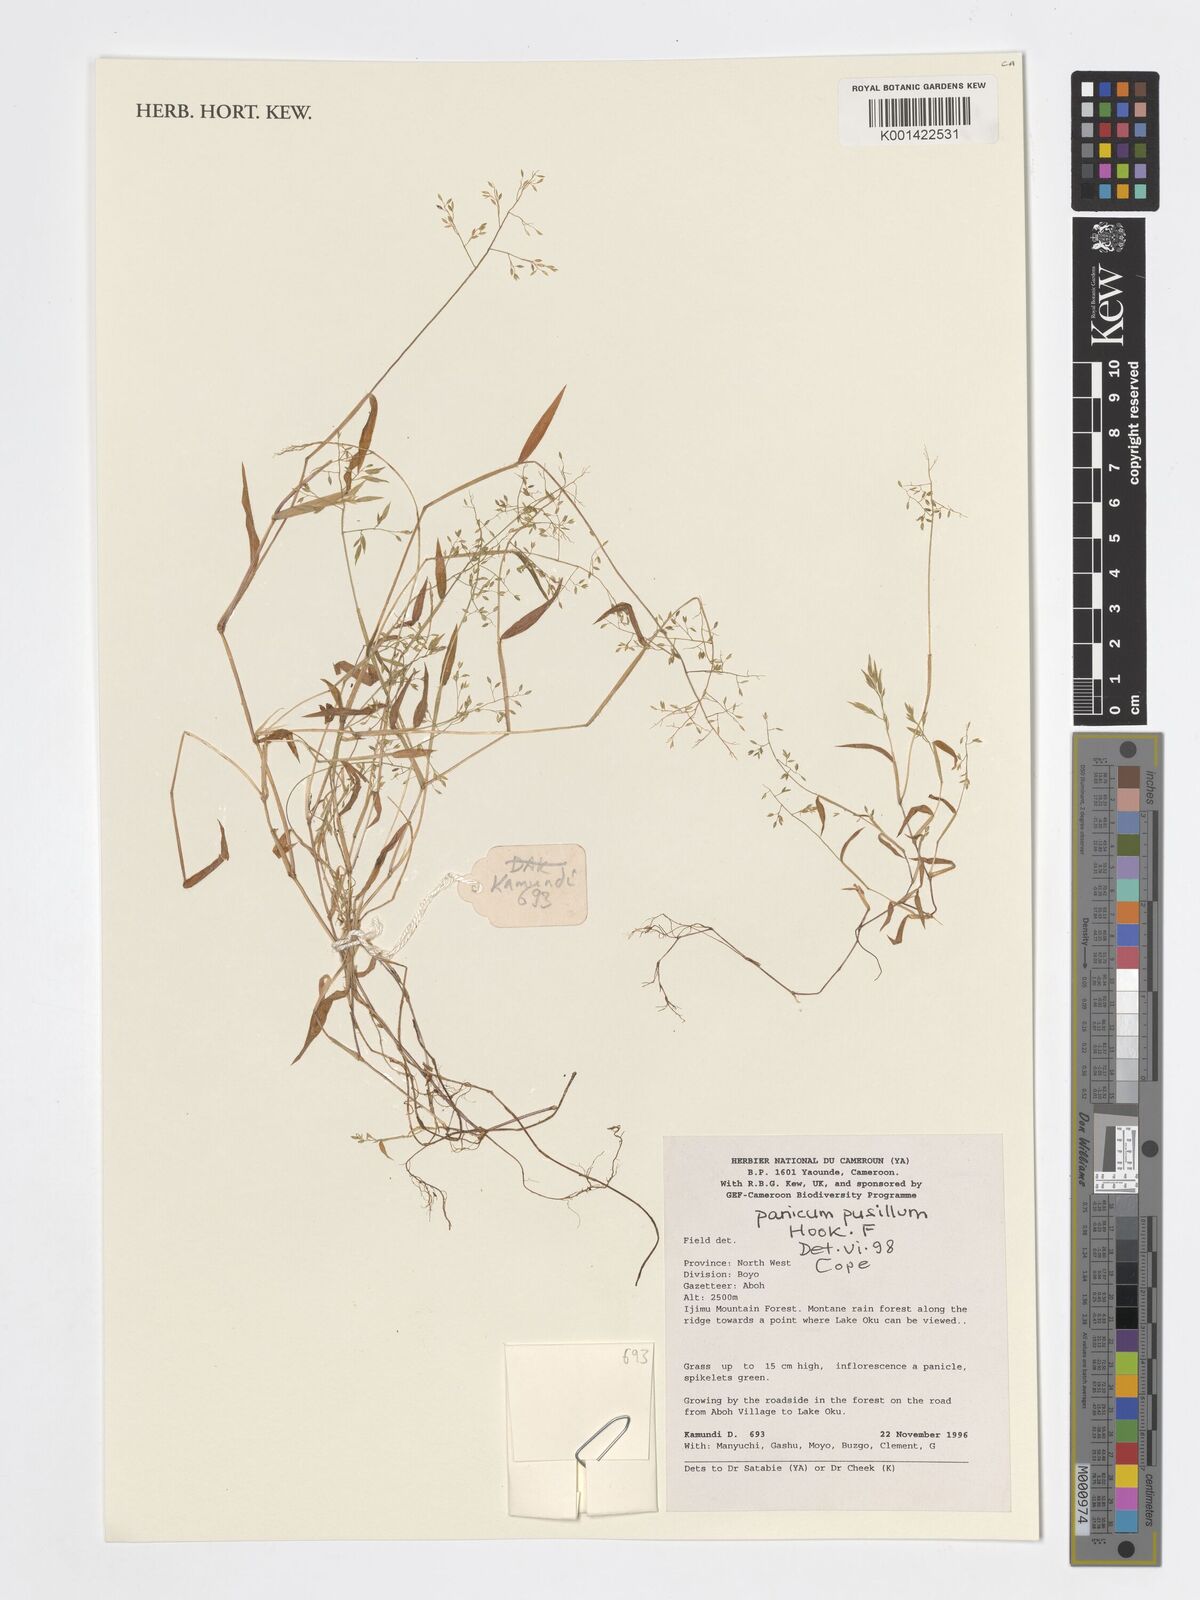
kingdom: Plantae
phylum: Tracheophyta
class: Liliopsida
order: Poales
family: Poaceae
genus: Panicum
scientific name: Panicum pusillum
